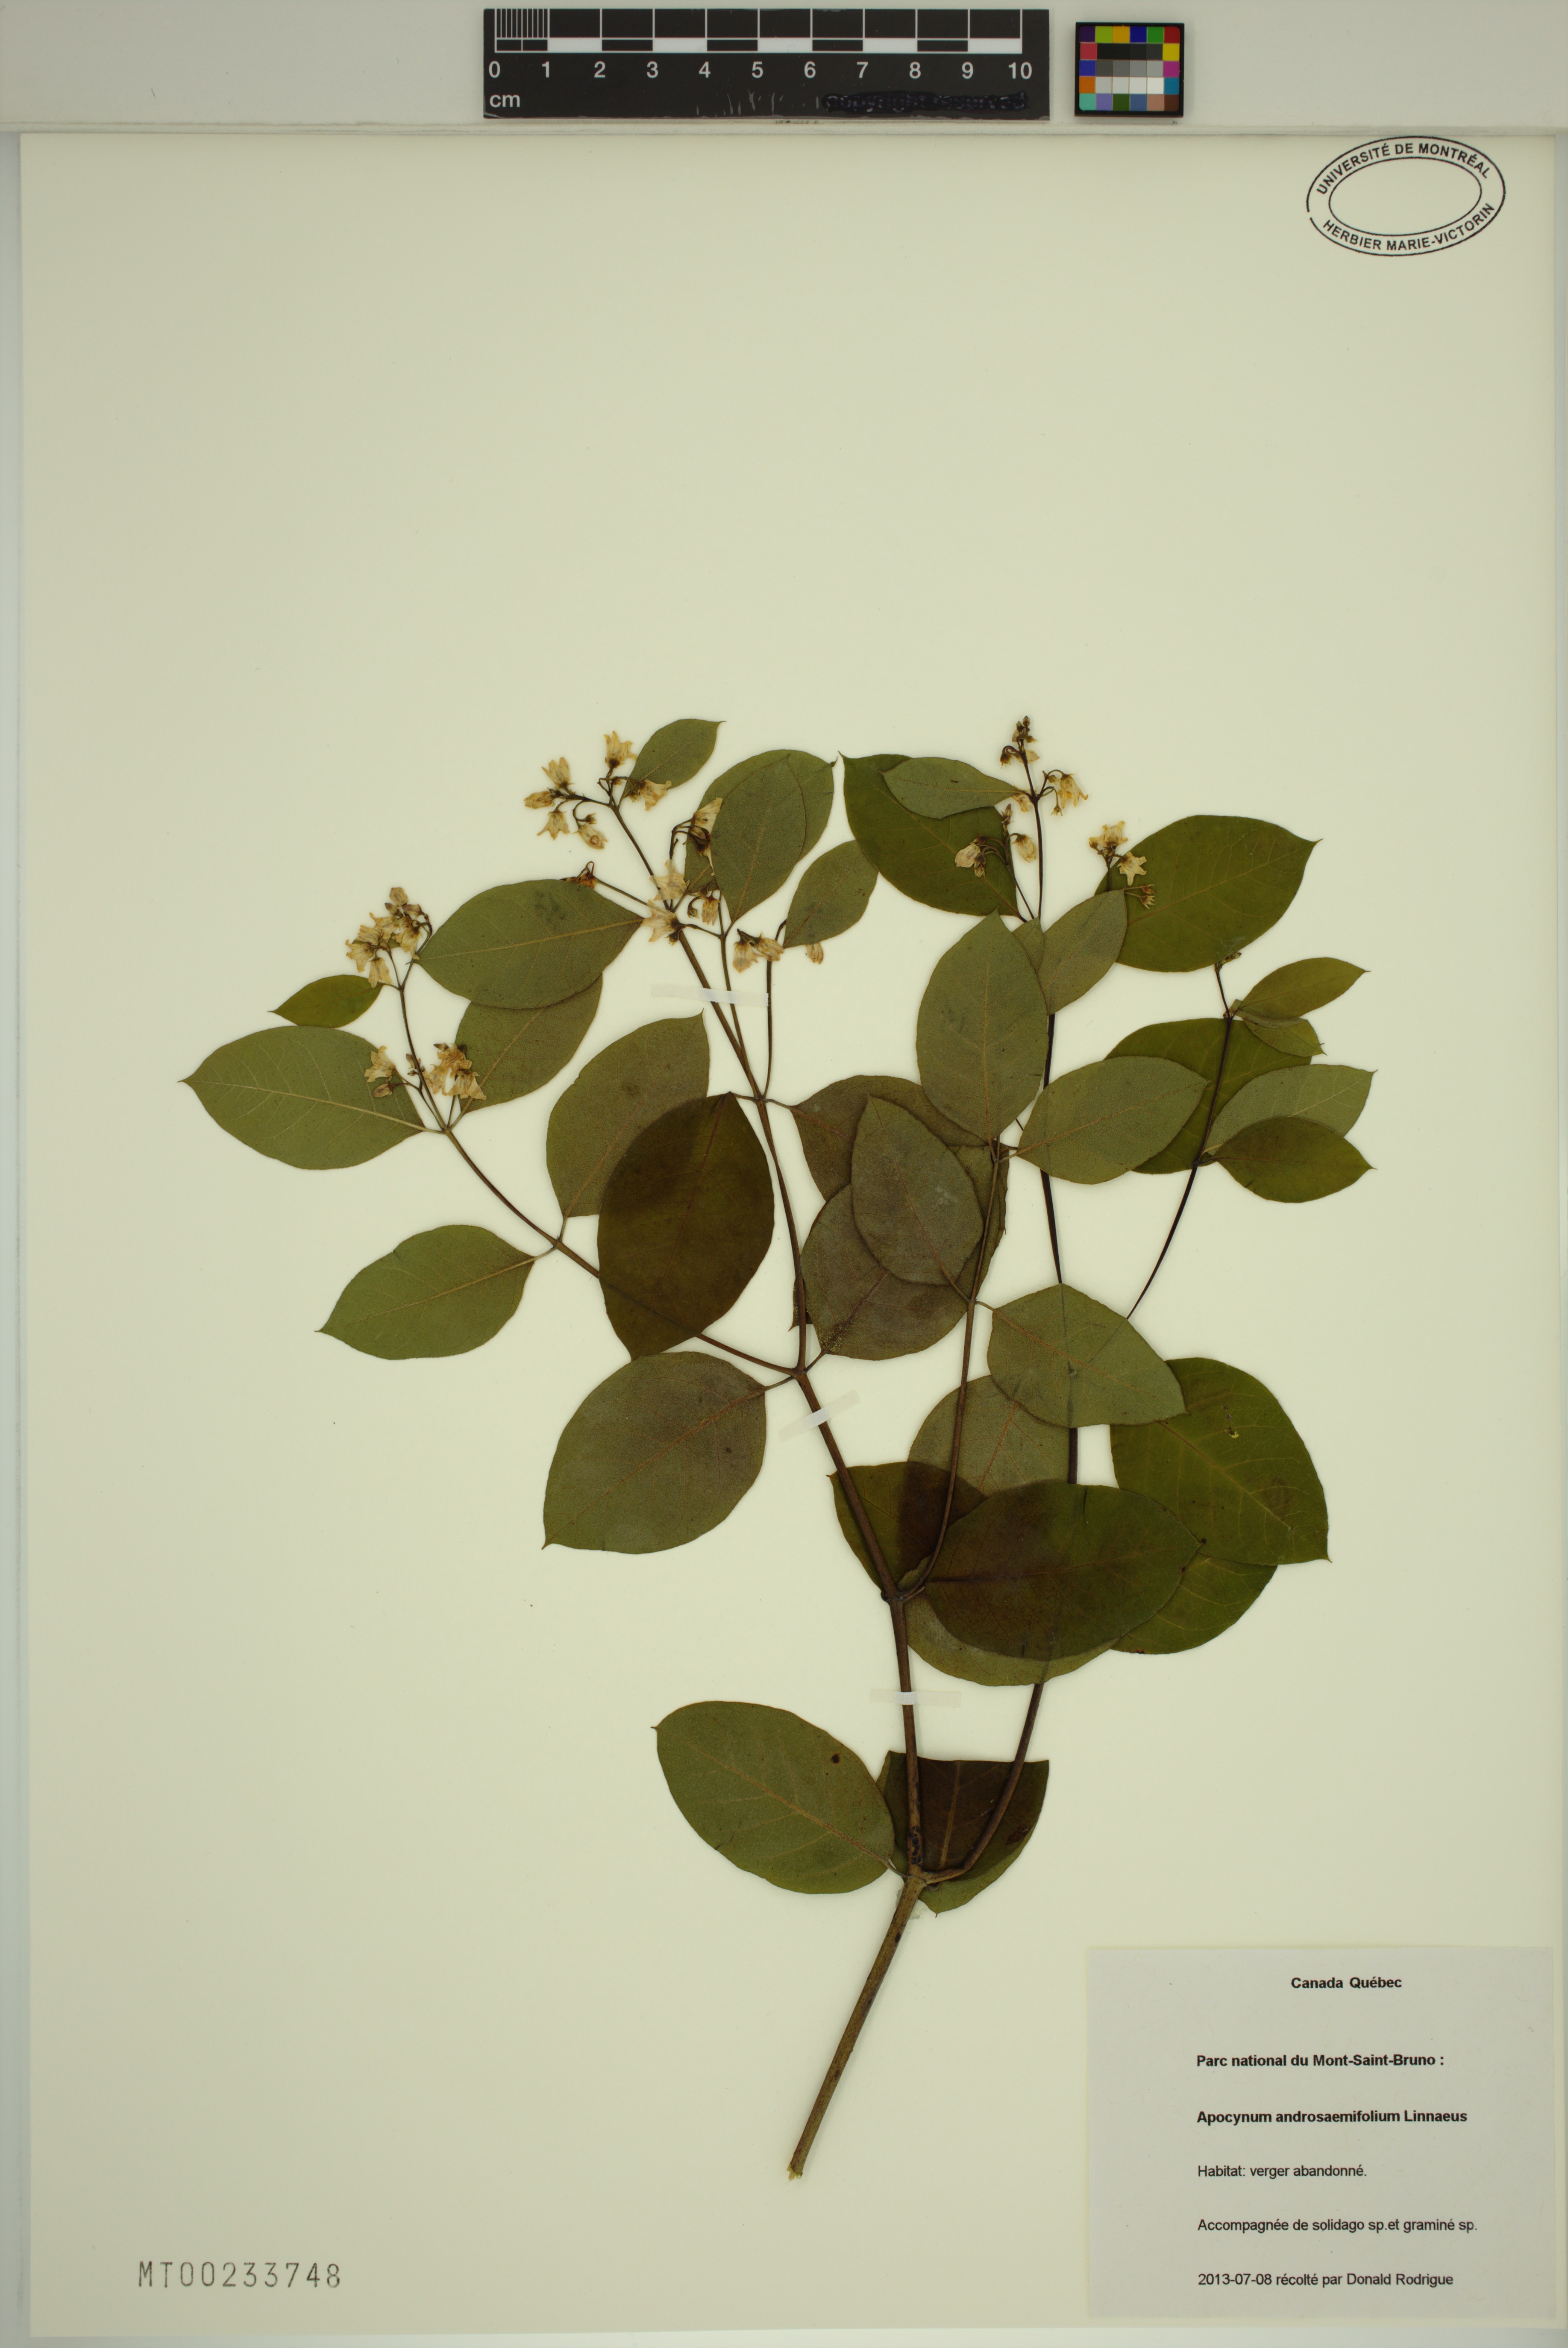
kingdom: Plantae
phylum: Tracheophyta
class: Magnoliopsida
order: Gentianales
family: Apocynaceae
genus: Apocynum
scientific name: Apocynum androsaemifolium
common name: Spreading dogbane
